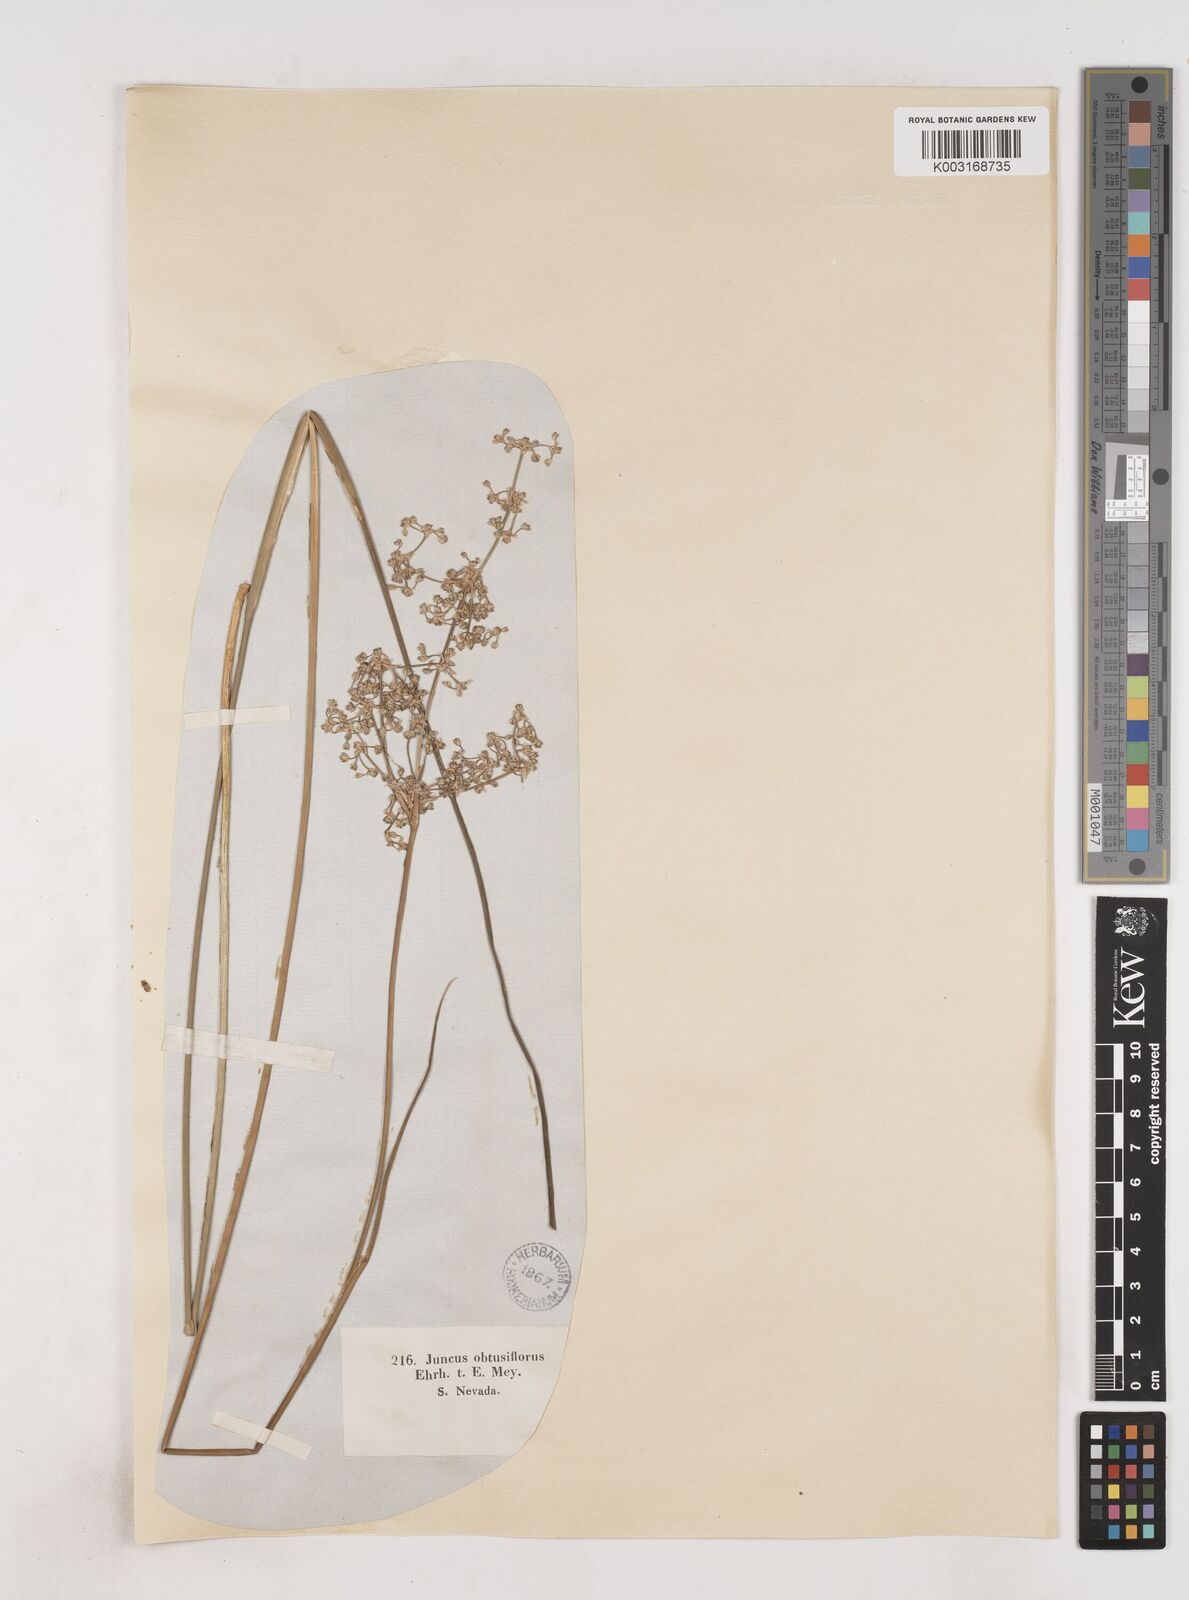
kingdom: Plantae
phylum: Tracheophyta
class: Liliopsida
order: Poales
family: Juncaceae
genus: Juncus
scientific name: Juncus subnodulosus
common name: Blunt-flowered rush
